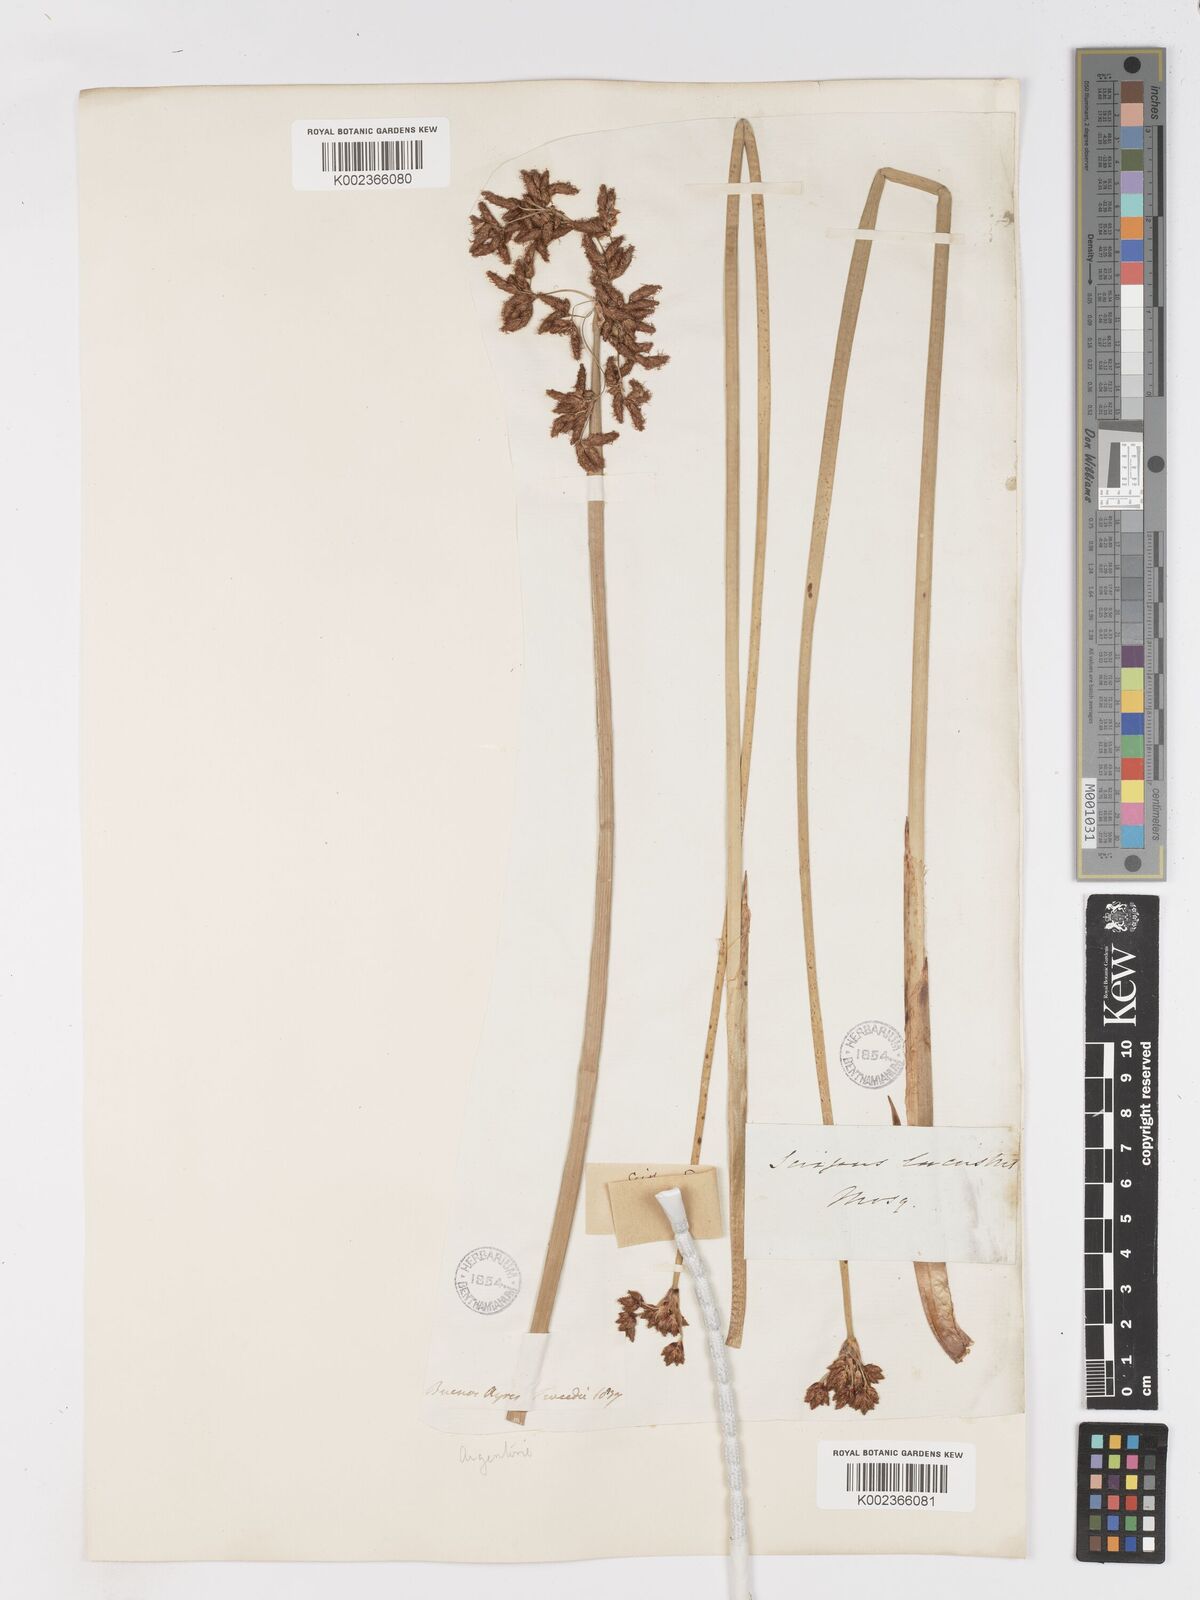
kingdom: Plantae
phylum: Tracheophyta
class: Liliopsida
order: Poales
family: Cyperaceae
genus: Schoenoplectus
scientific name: Schoenoplectus californicus
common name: California bulrush
